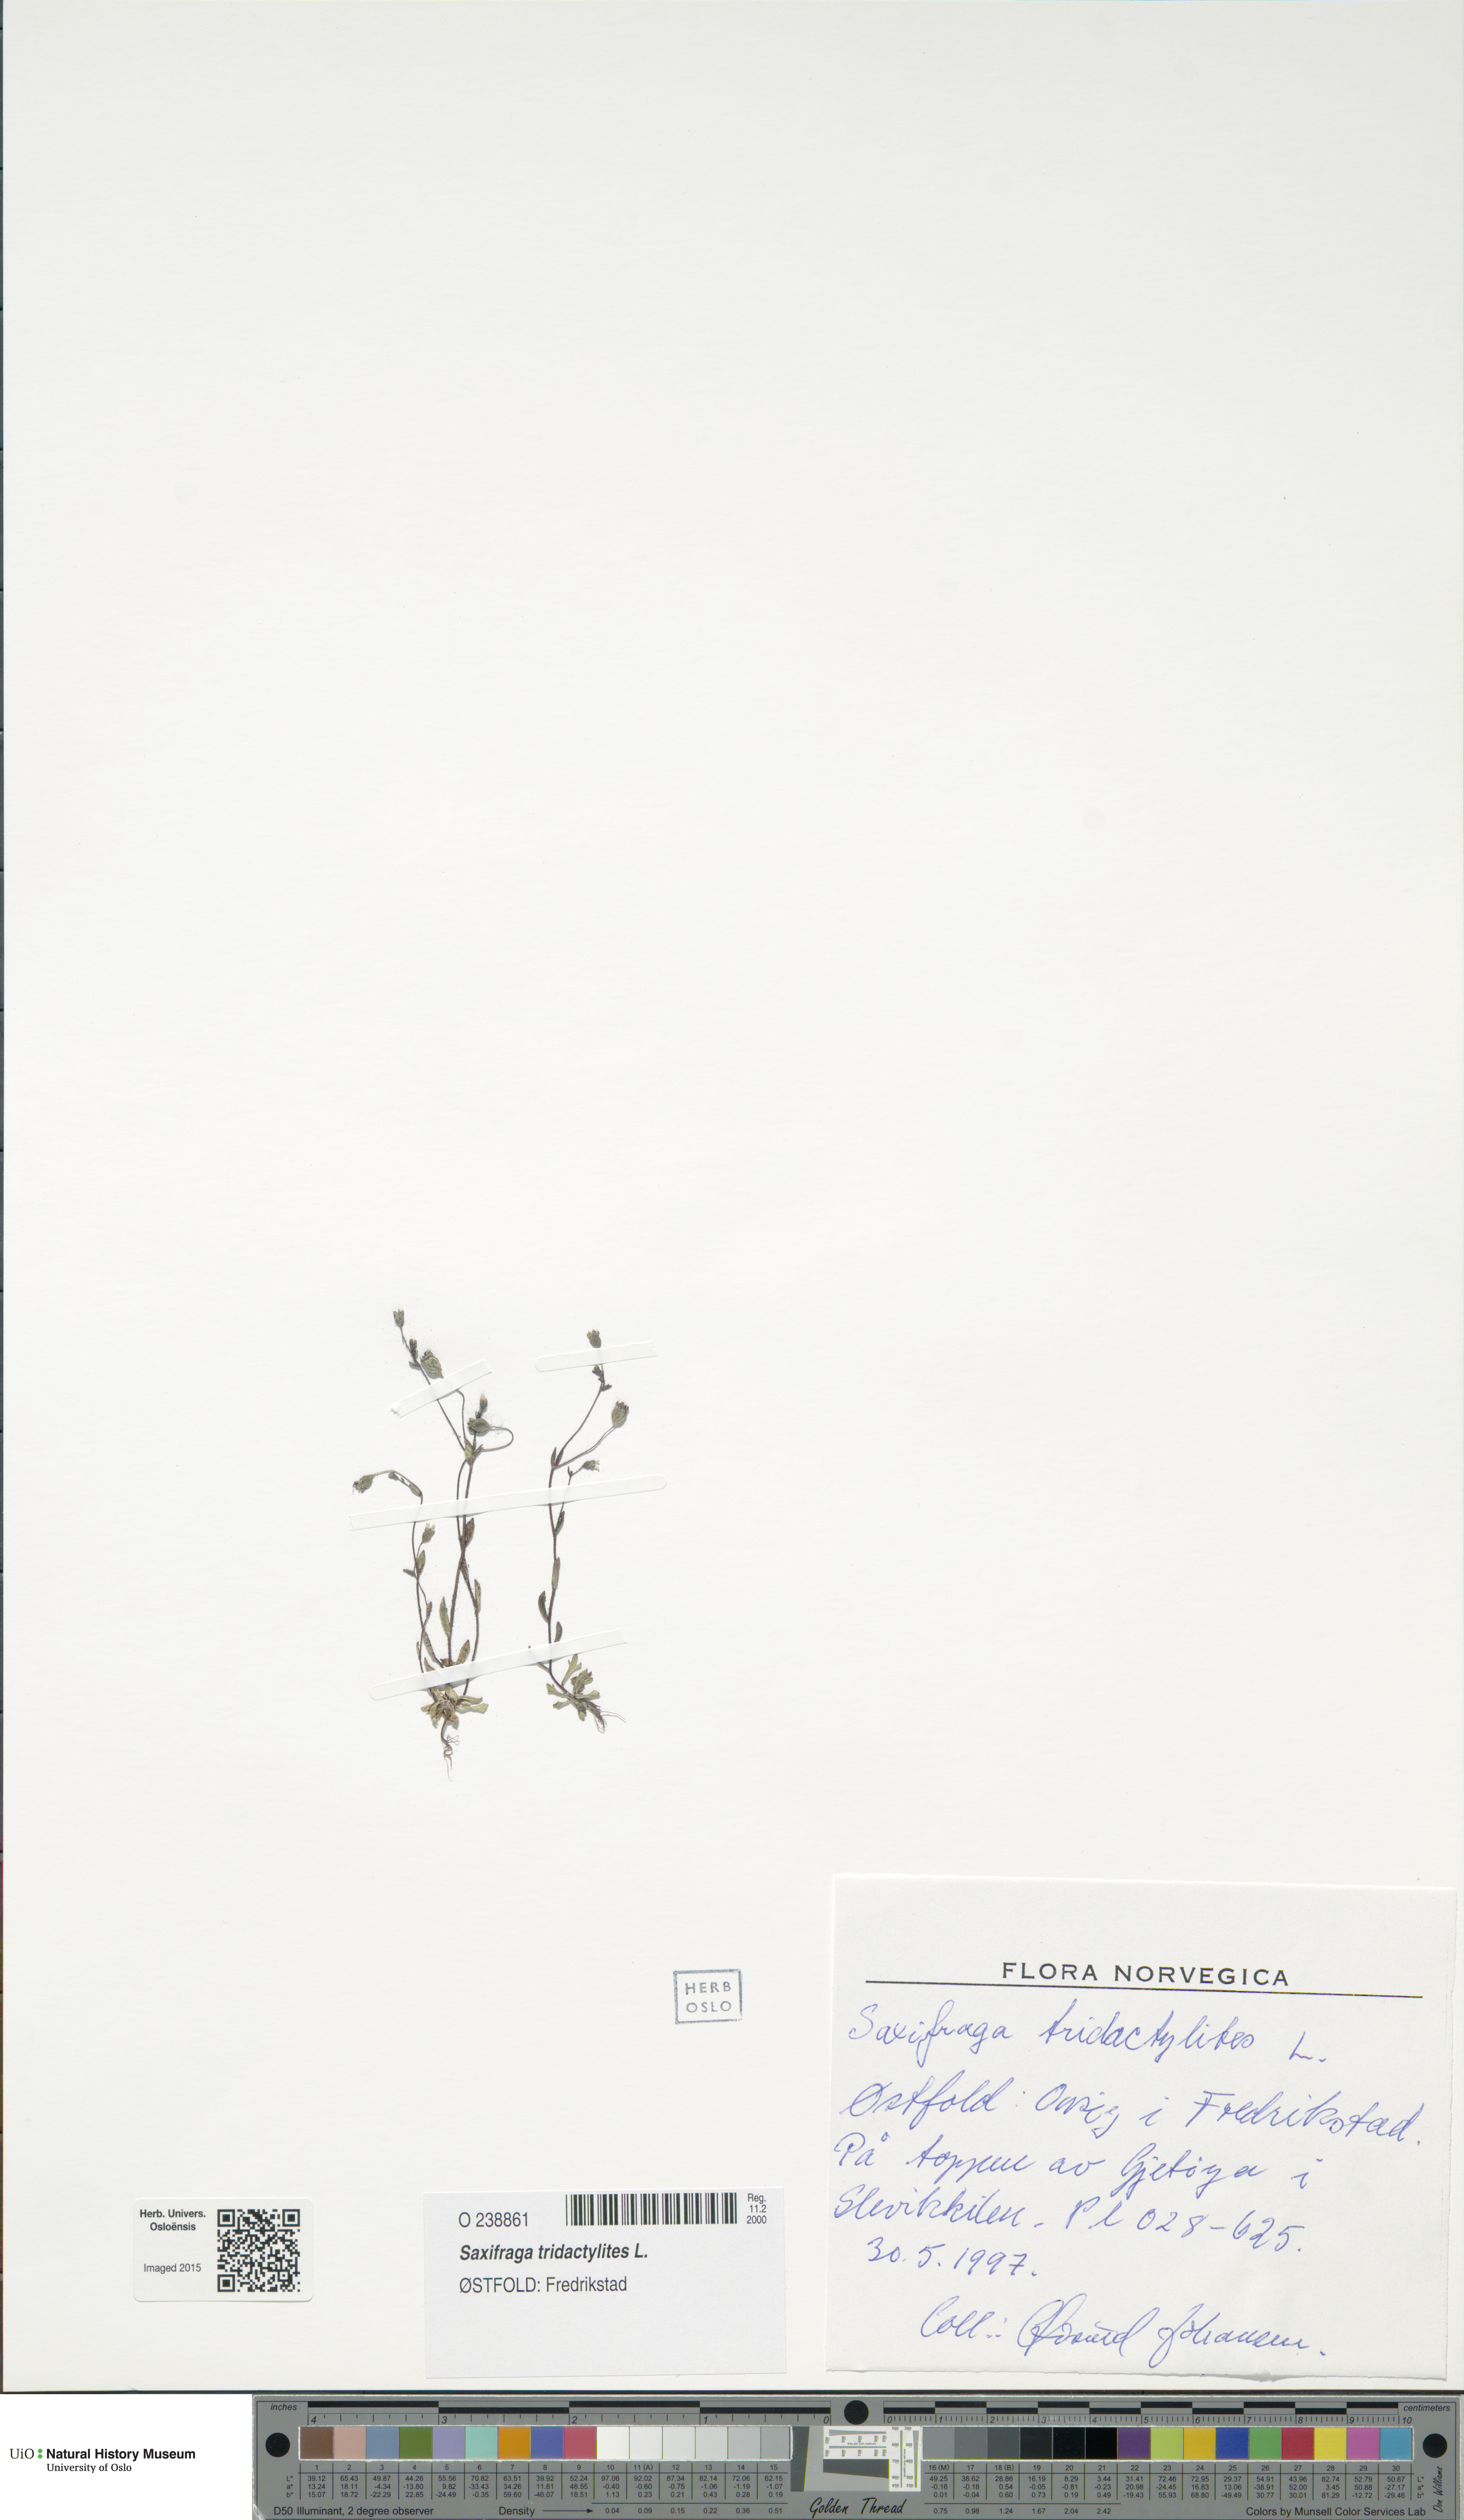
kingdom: Plantae
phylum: Tracheophyta
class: Magnoliopsida
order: Saxifragales
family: Saxifragaceae
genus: Saxifraga
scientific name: Saxifraga tridactylites
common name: Rue-leaved saxifrage
